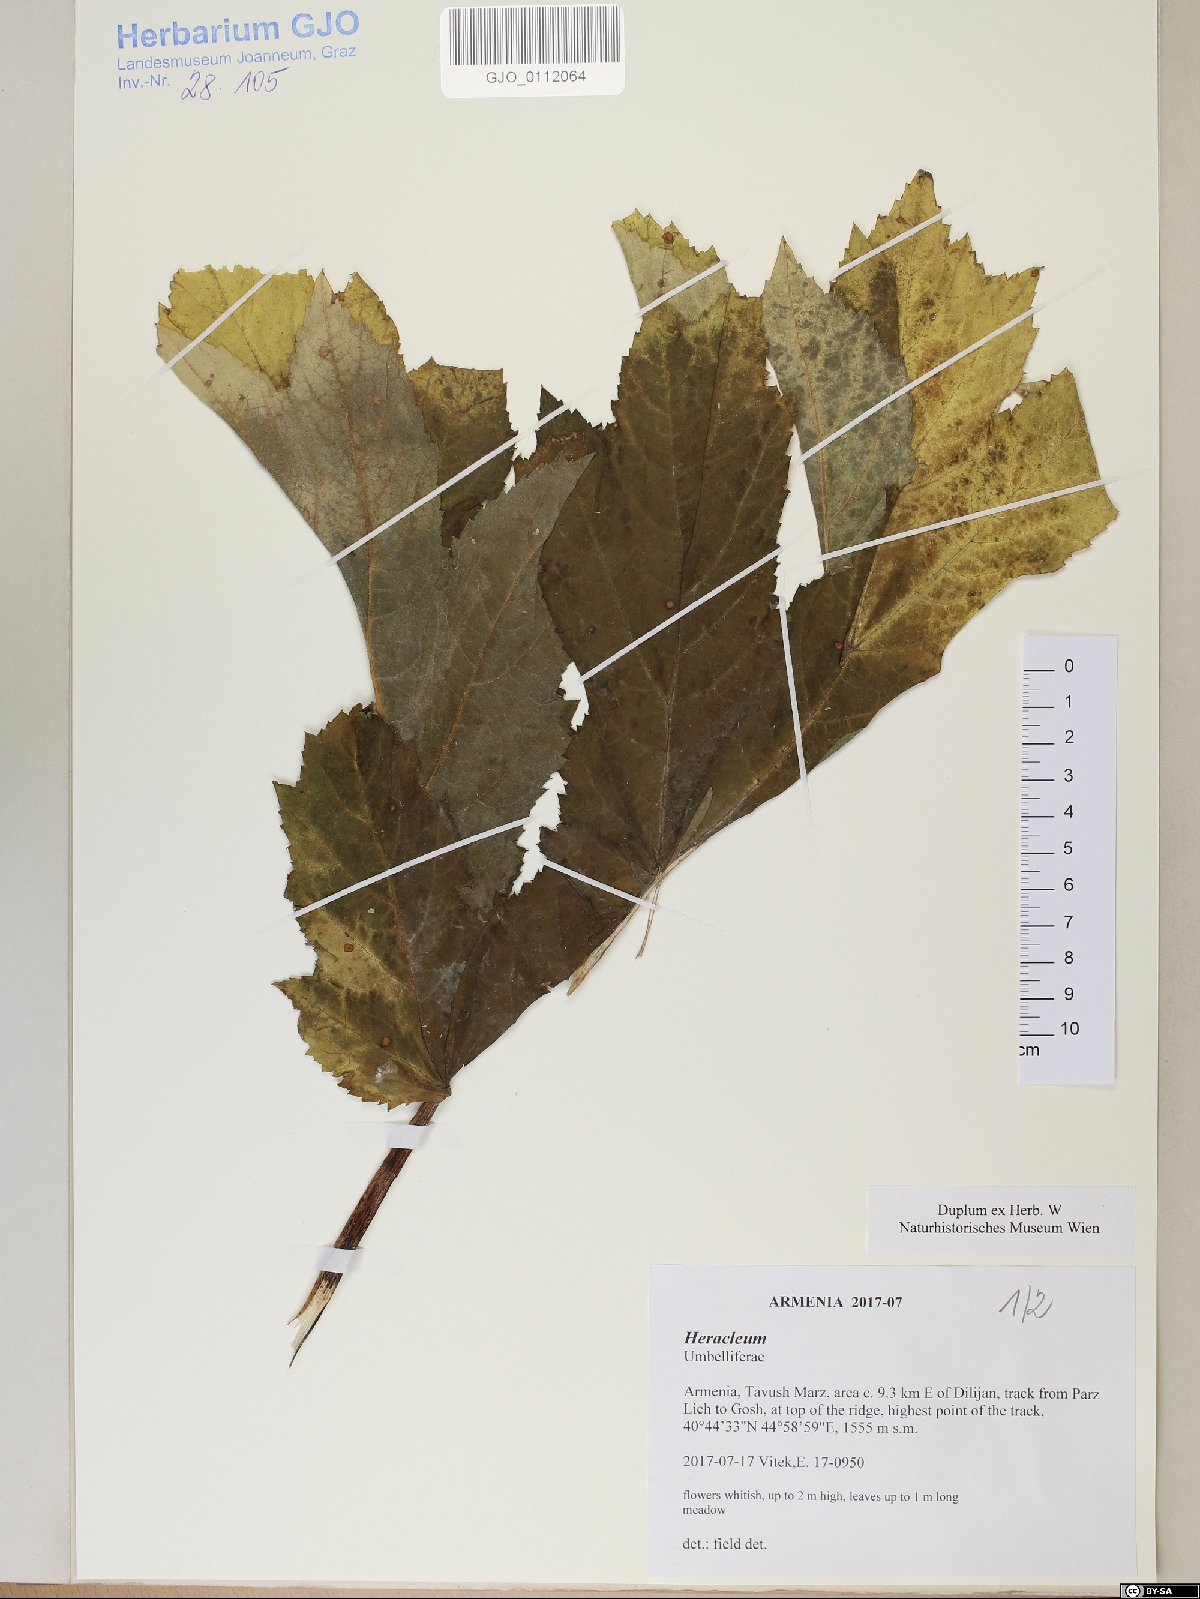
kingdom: Plantae
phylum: Tracheophyta
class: Magnoliopsida
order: Apiales
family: Apiaceae
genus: Heracleum
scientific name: Heracleum
